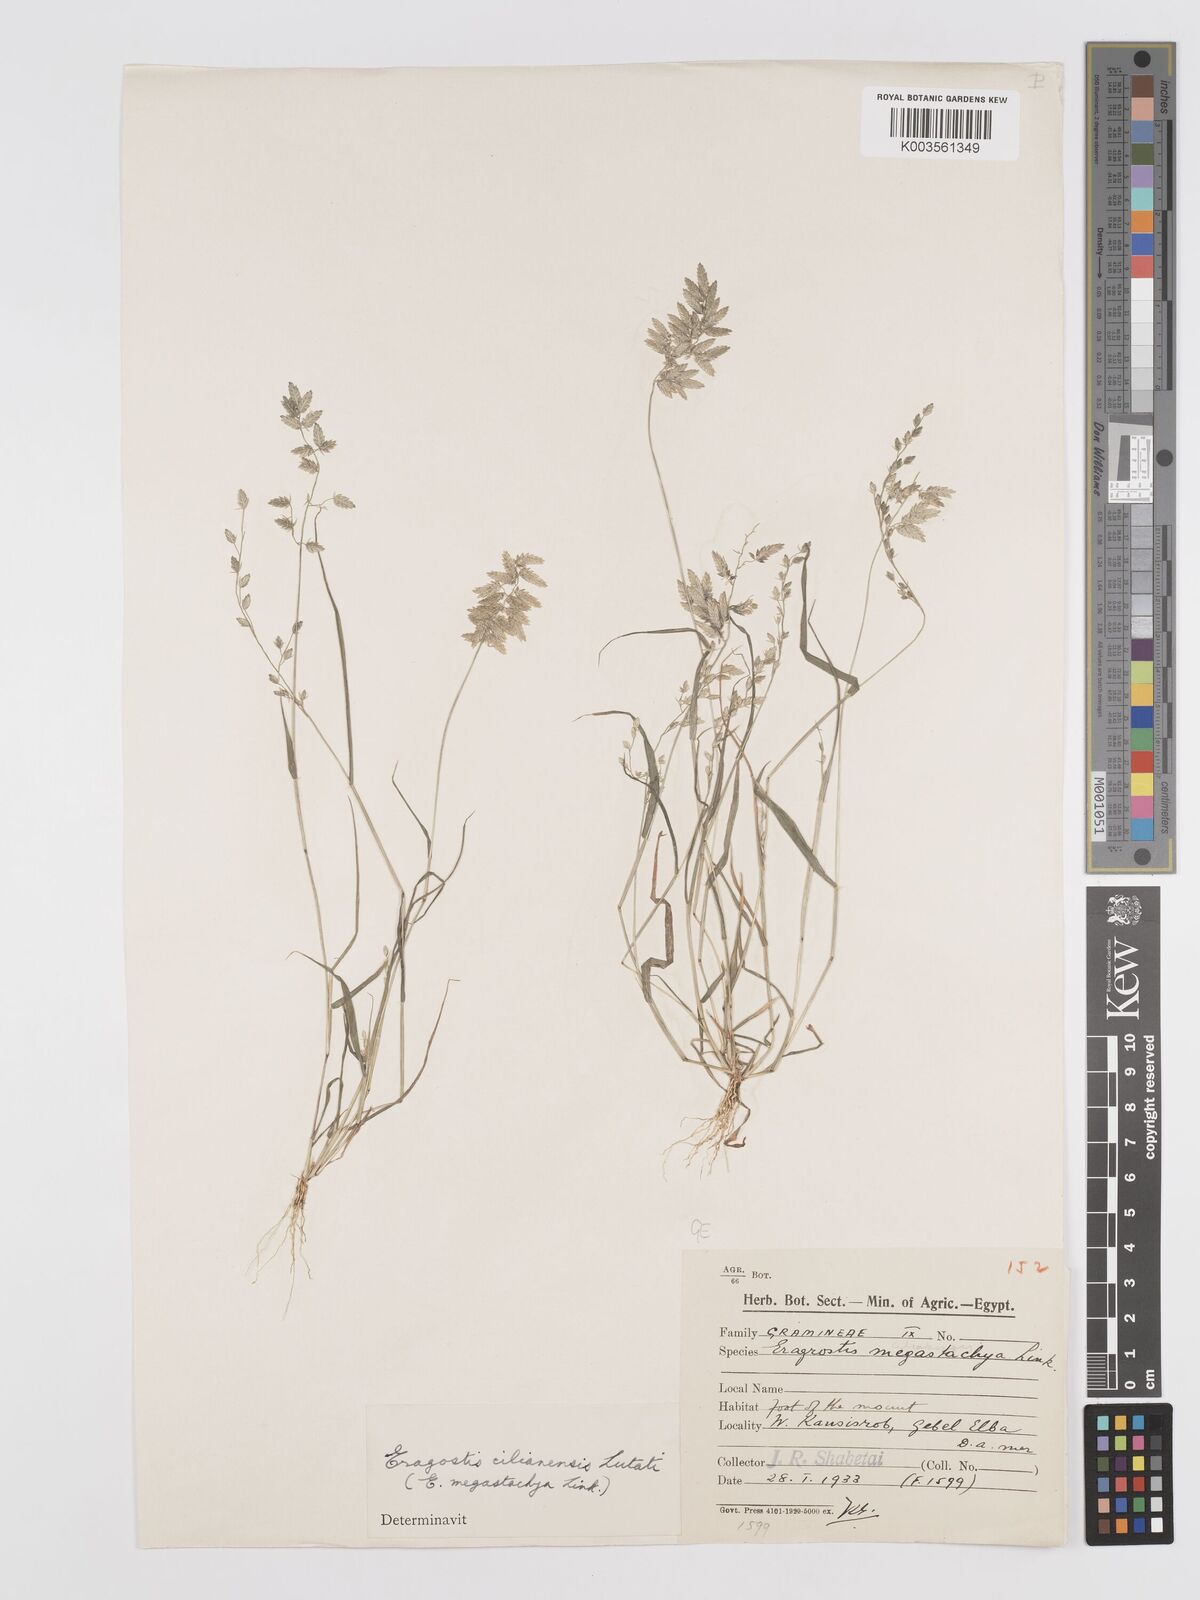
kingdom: Plantae
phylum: Tracheophyta
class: Liliopsida
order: Poales
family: Poaceae
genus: Eragrostis
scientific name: Eragrostis cilianensis
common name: Stinkgrass
